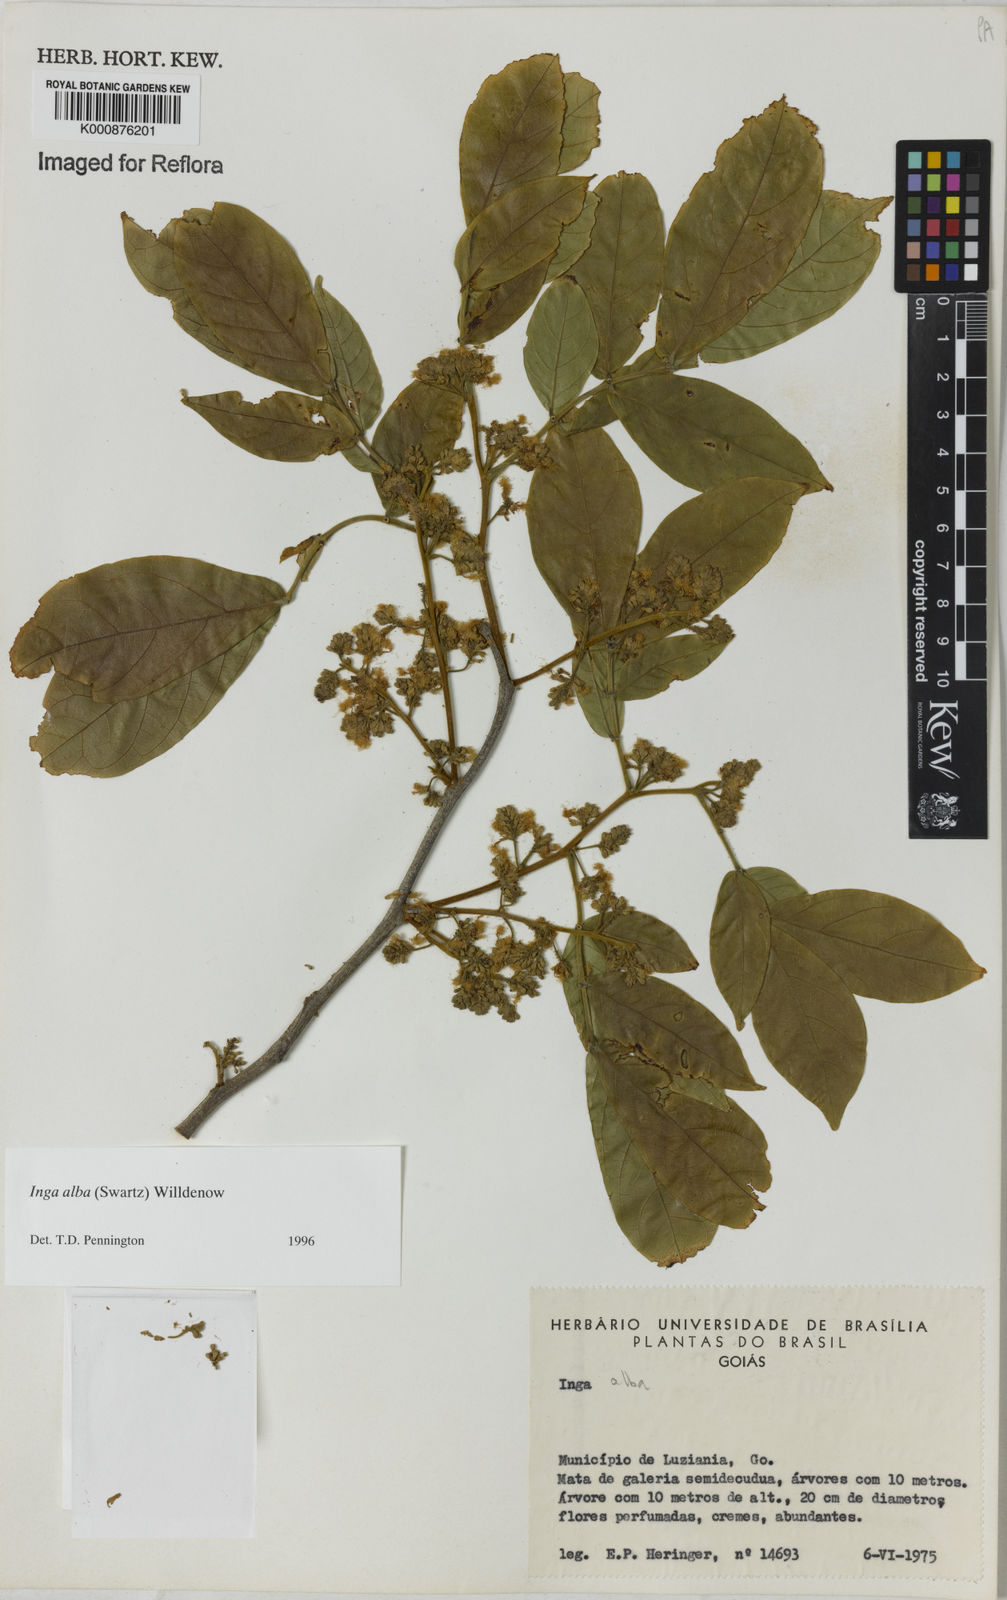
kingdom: Plantae
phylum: Tracheophyta
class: Magnoliopsida
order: Fabales
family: Fabaceae
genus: Inga
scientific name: Inga alba
